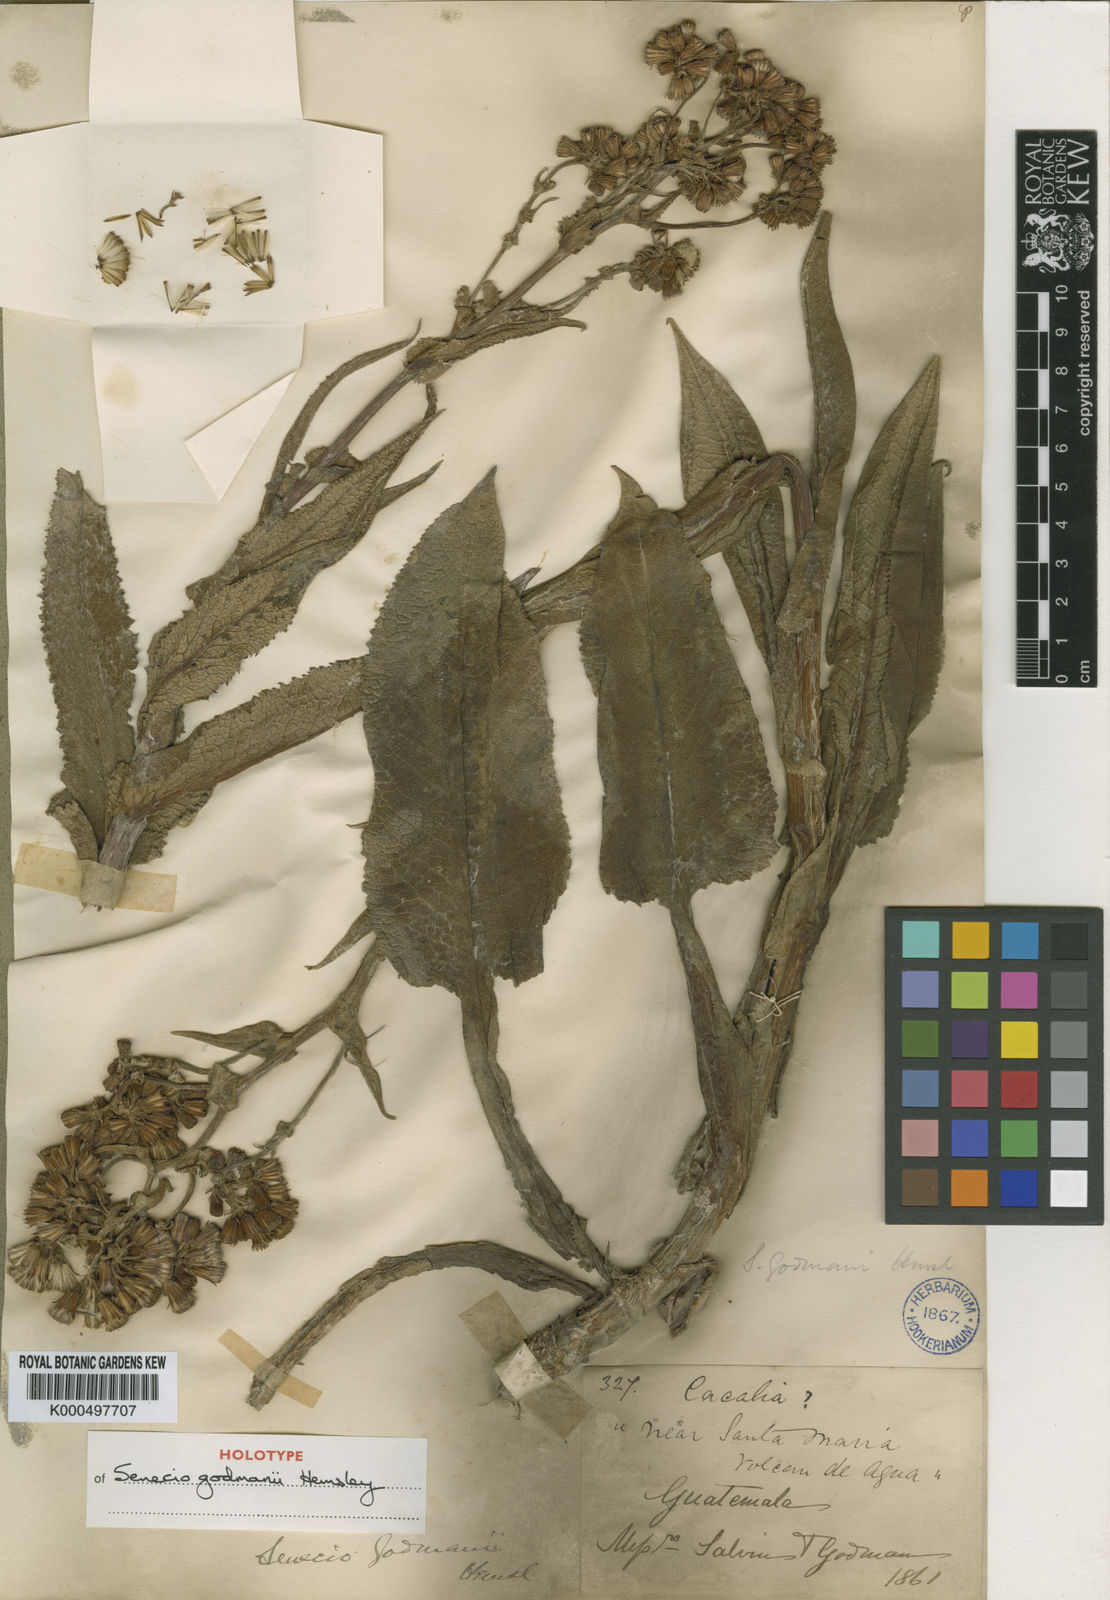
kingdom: Plantae
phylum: Tracheophyta
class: Magnoliopsida
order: Asterales
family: Asteraceae
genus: Senecio
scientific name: Senecio godmanii
